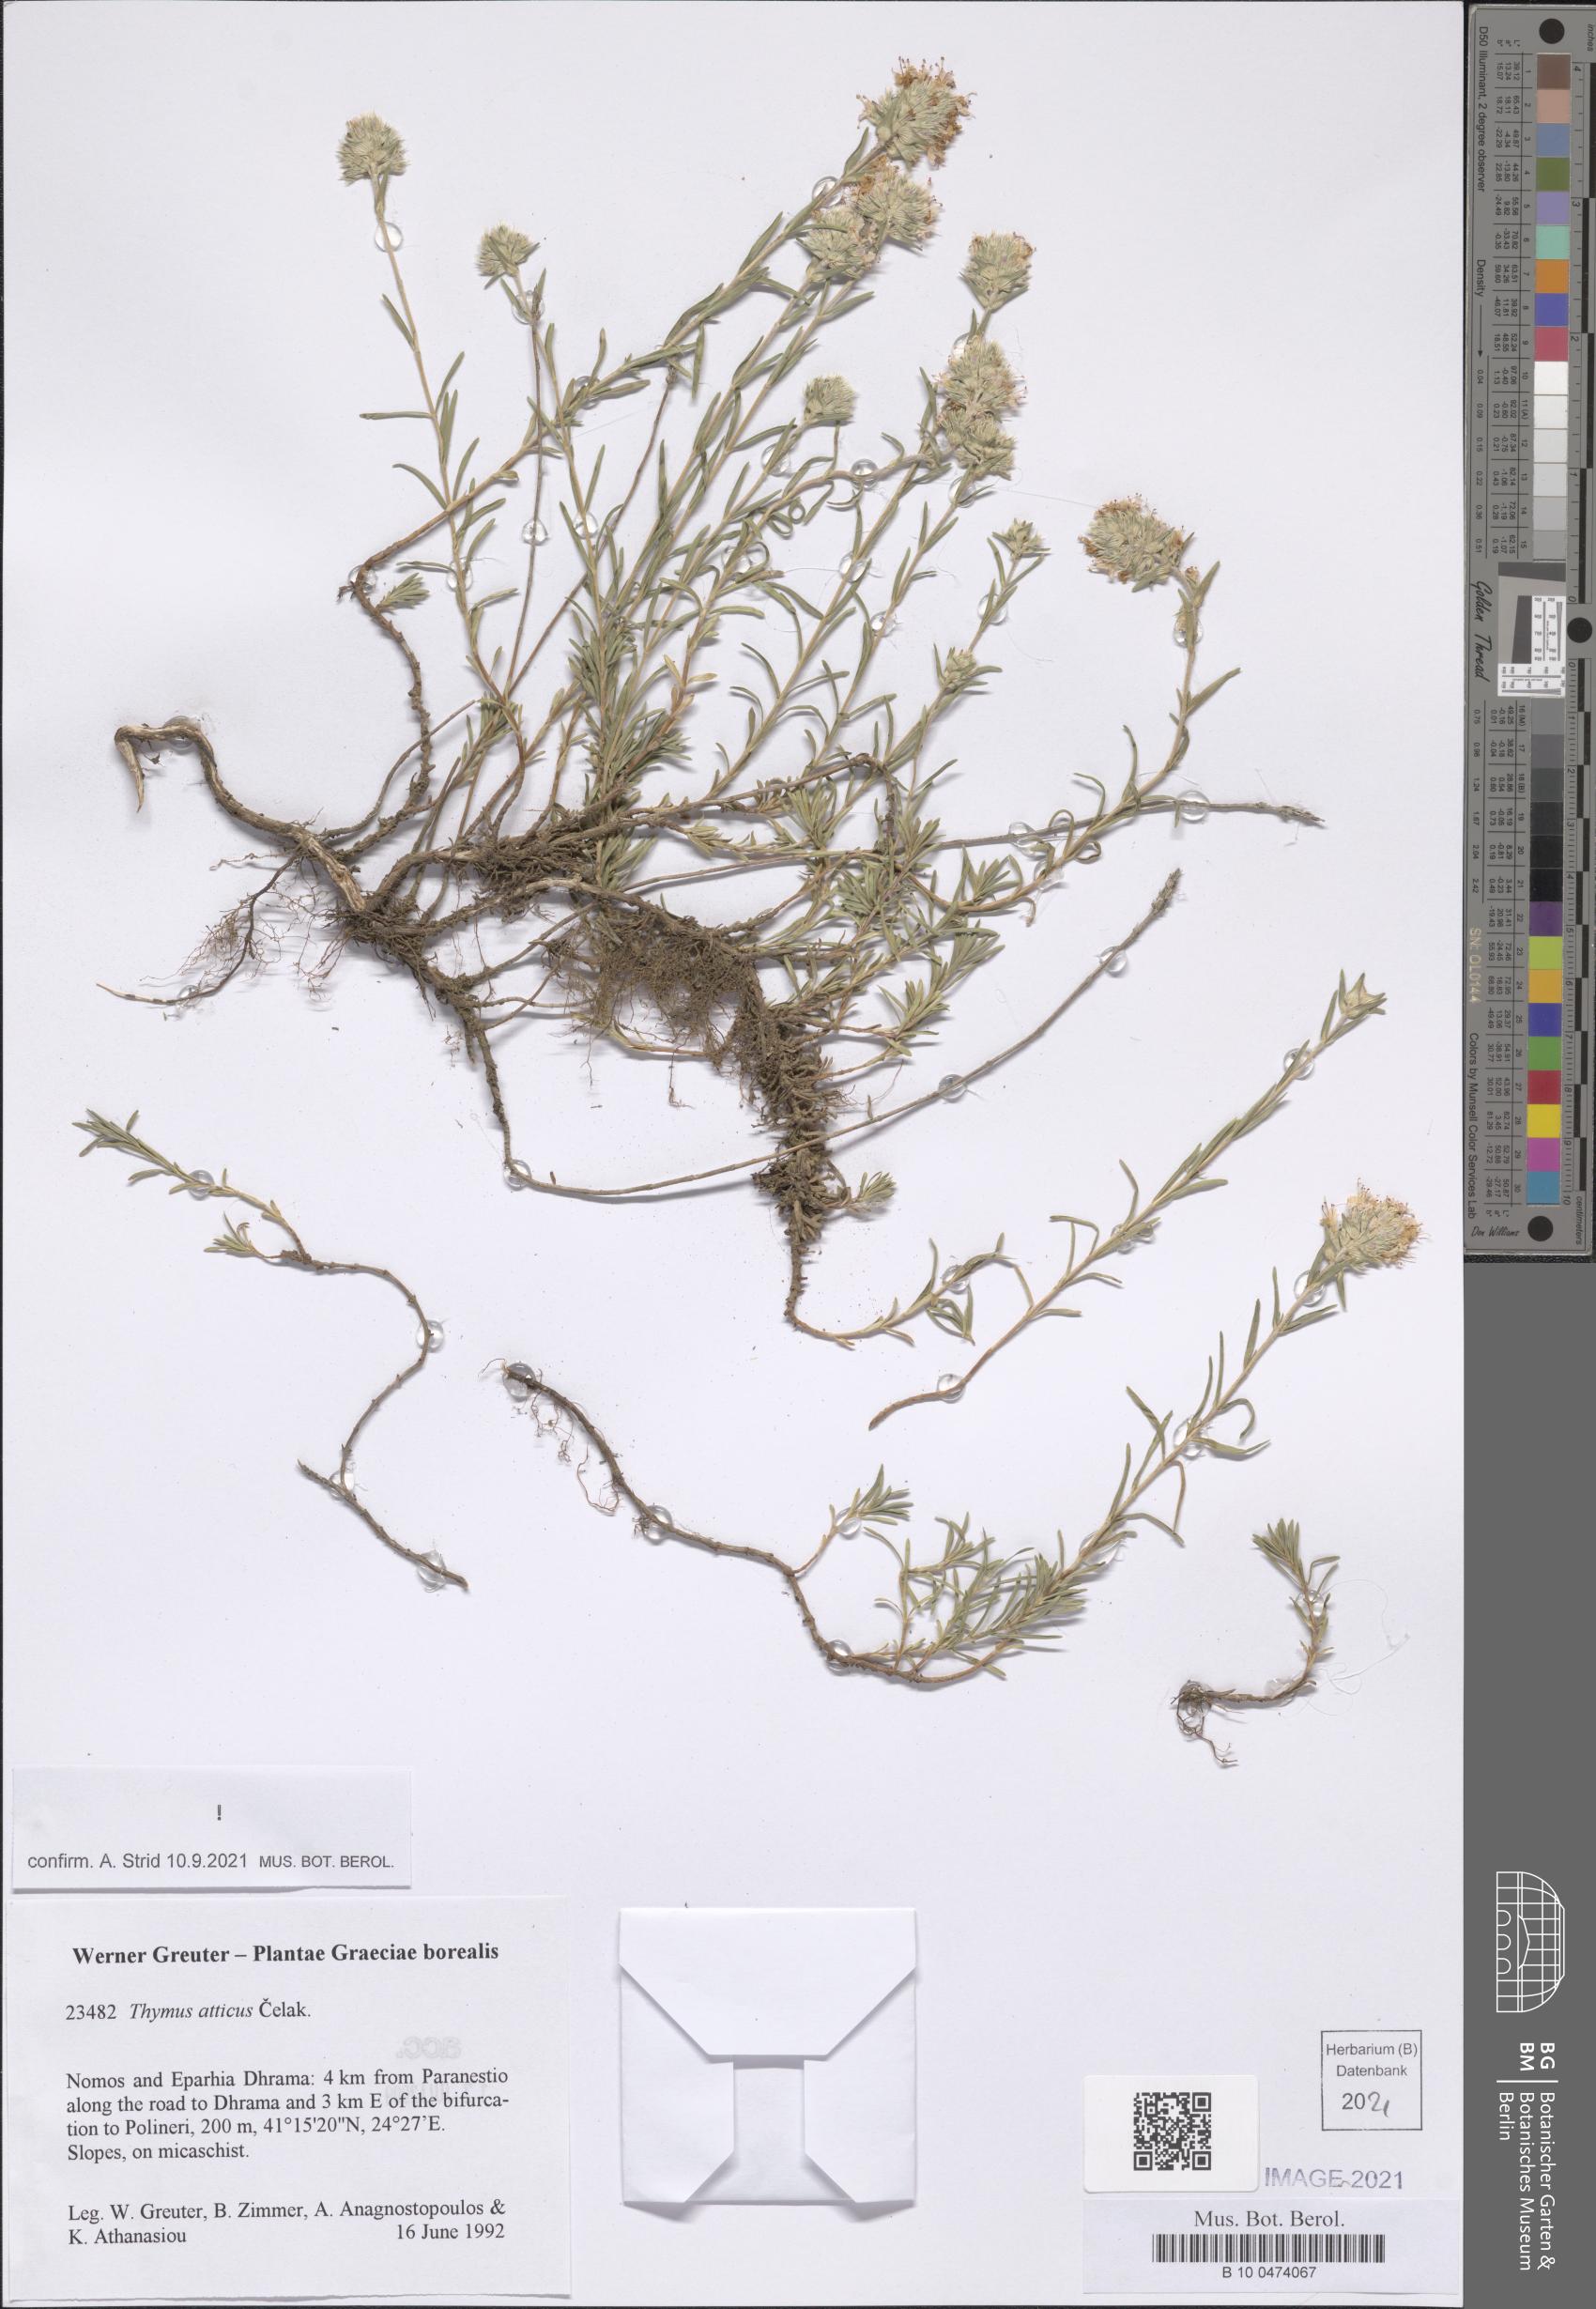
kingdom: Plantae
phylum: Tracheophyta
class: Magnoliopsida
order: Lamiales
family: Lamiaceae
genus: Thymus
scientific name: Thymus atticus
